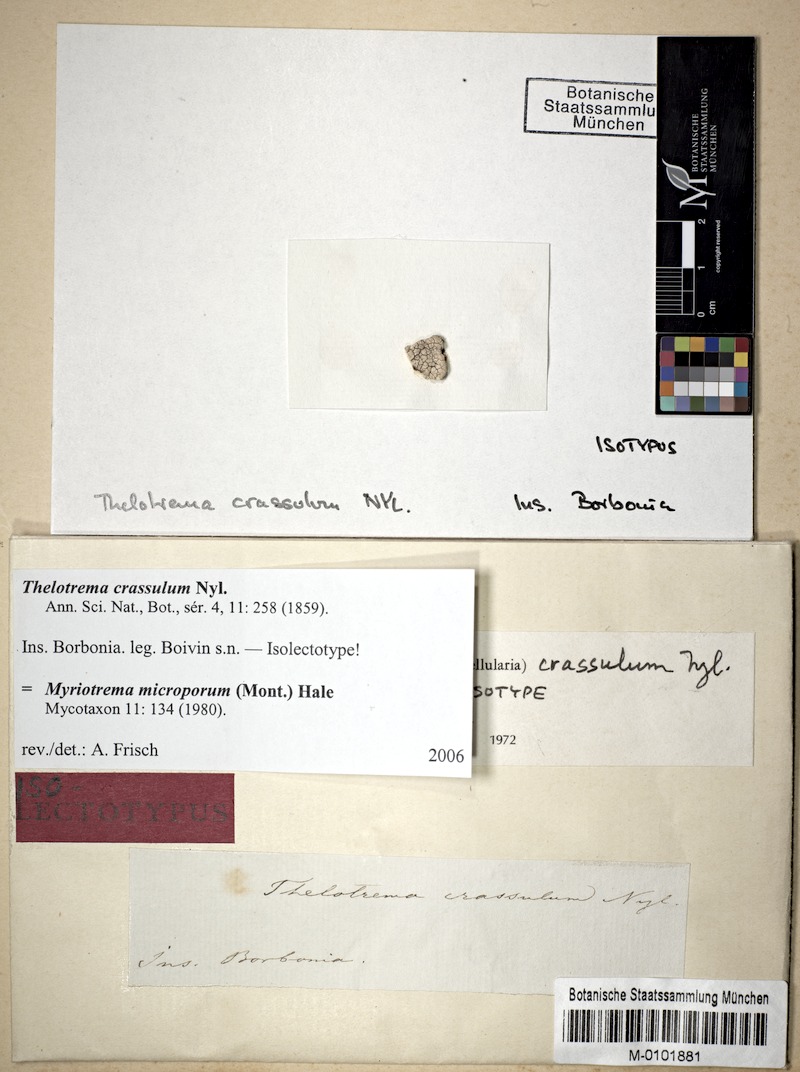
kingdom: Fungi
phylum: Ascomycota
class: Lecanoromycetes
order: Ostropales
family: Graphidaceae
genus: Myriotrema
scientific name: Myriotrema microporum
